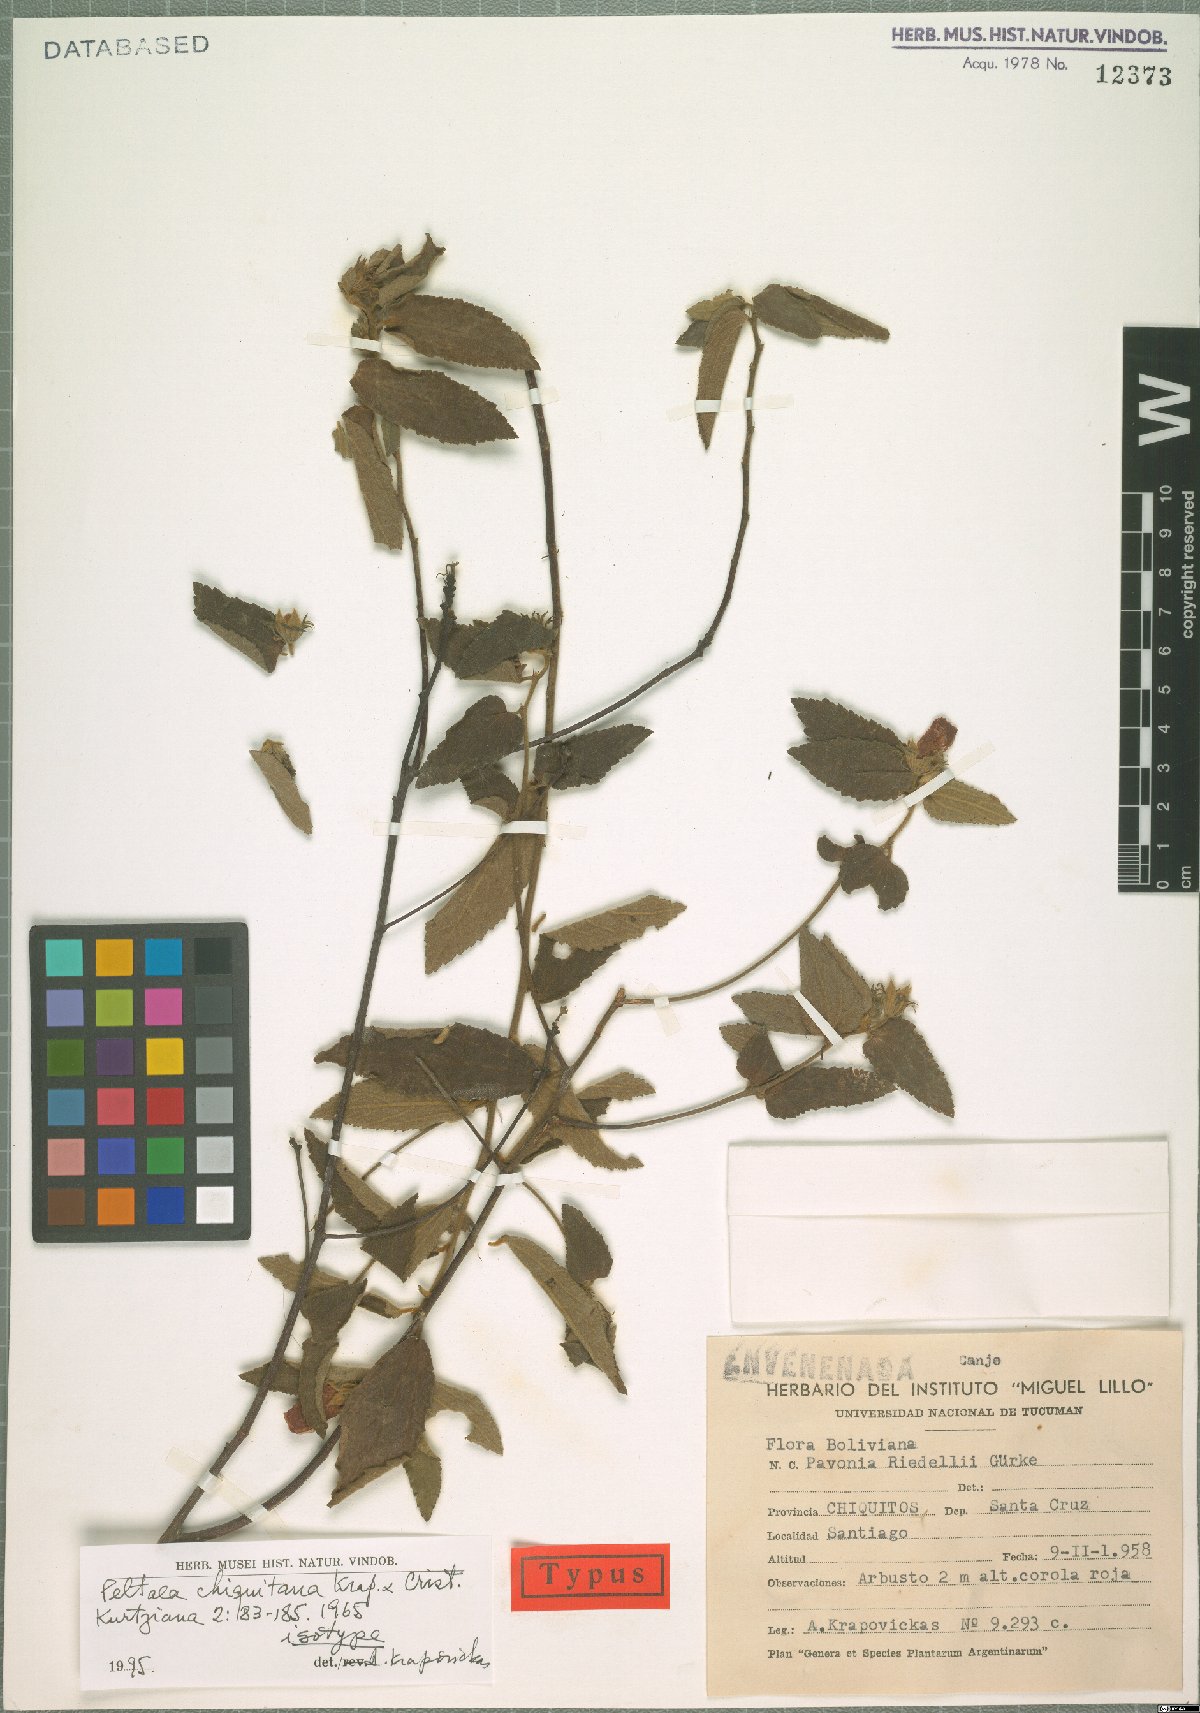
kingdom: Plantae
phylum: Tracheophyta
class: Magnoliopsida
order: Malvales
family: Malvaceae
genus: Peltaea
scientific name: Peltaea chiquitana
